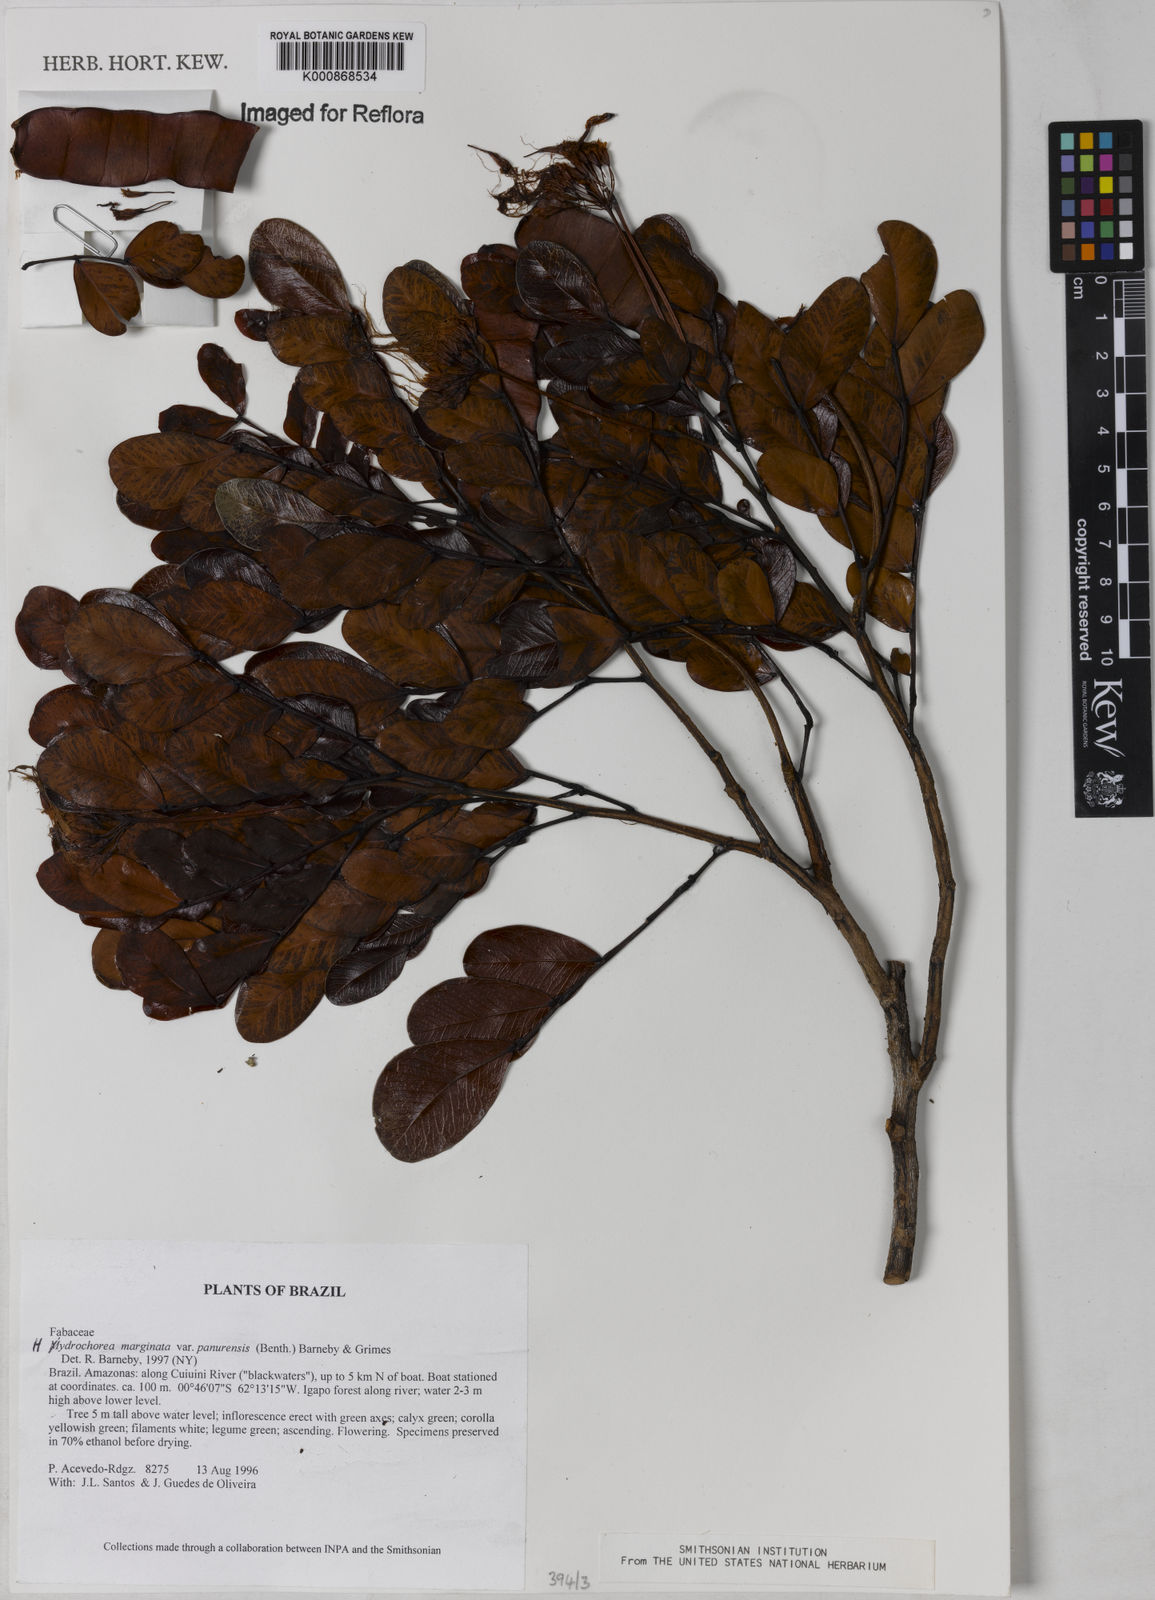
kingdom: Plantae
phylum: Tracheophyta
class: Magnoliopsida
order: Fabales
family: Fabaceae
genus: Hydrochorea
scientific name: Hydrochorea marginata
